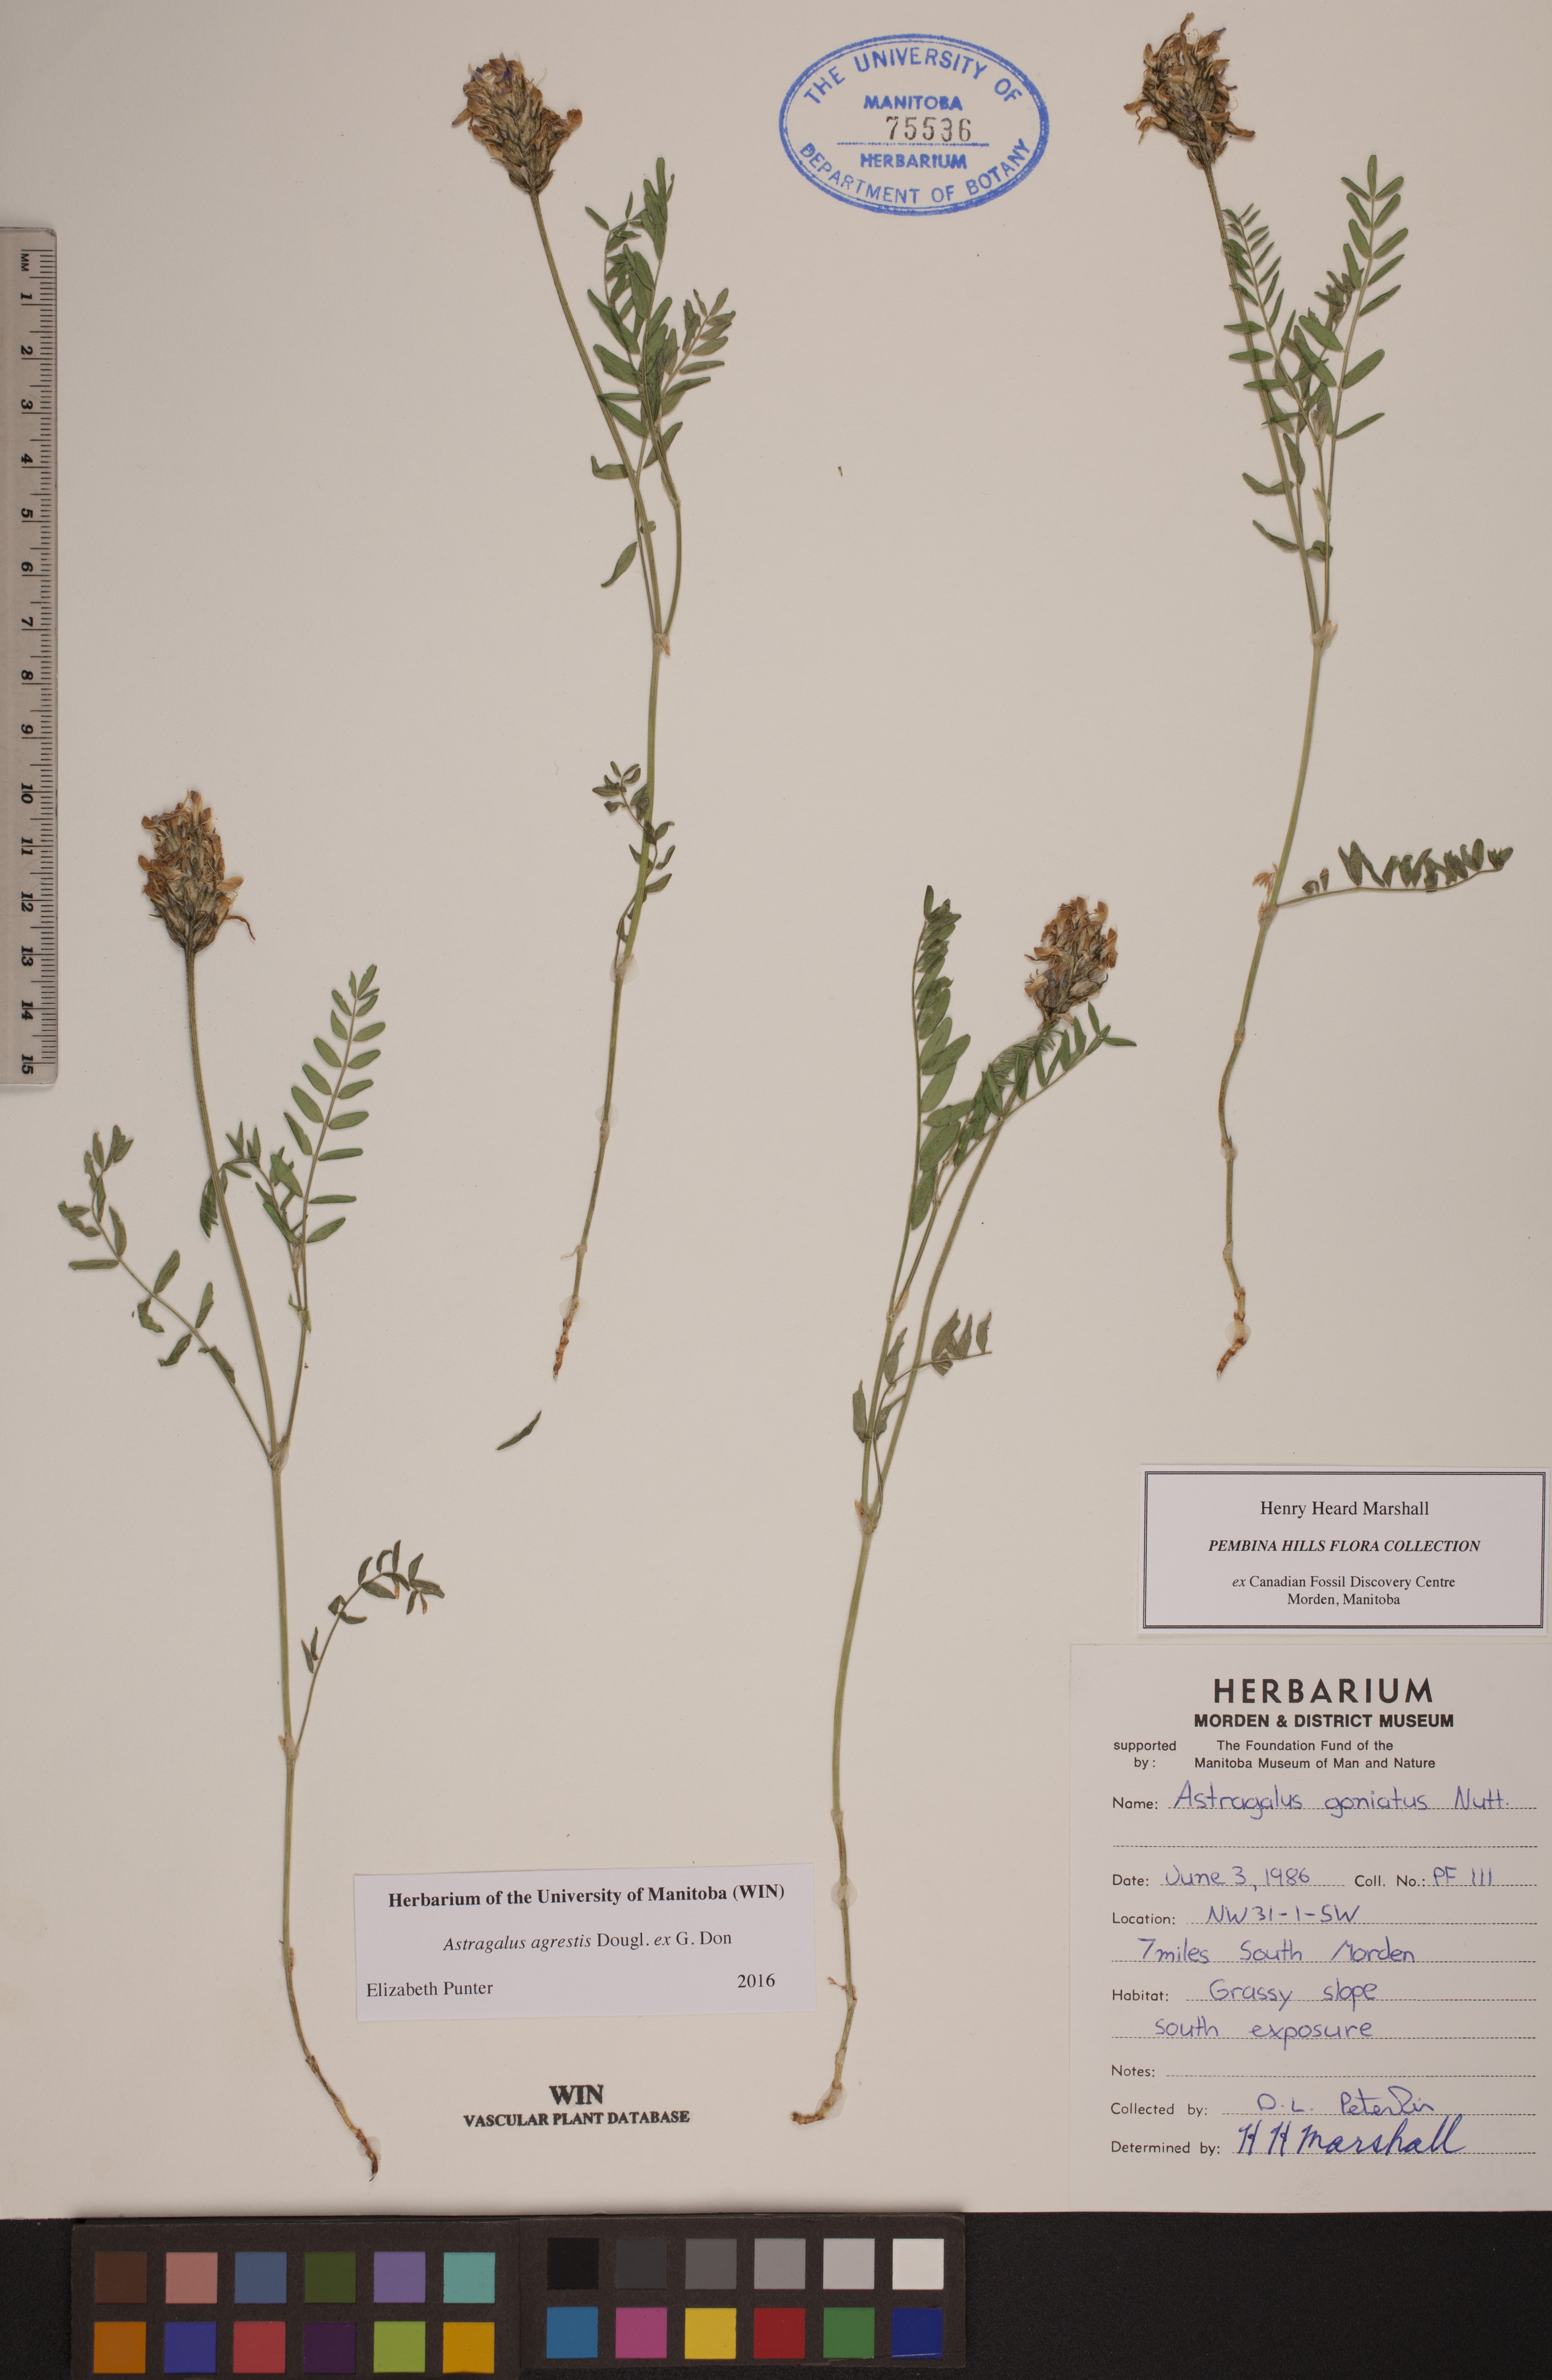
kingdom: Plantae
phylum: Tracheophyta
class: Magnoliopsida
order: Fabales
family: Fabaceae
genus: Astragalus
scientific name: Astragalus agrestis
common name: Field milk-vetch
